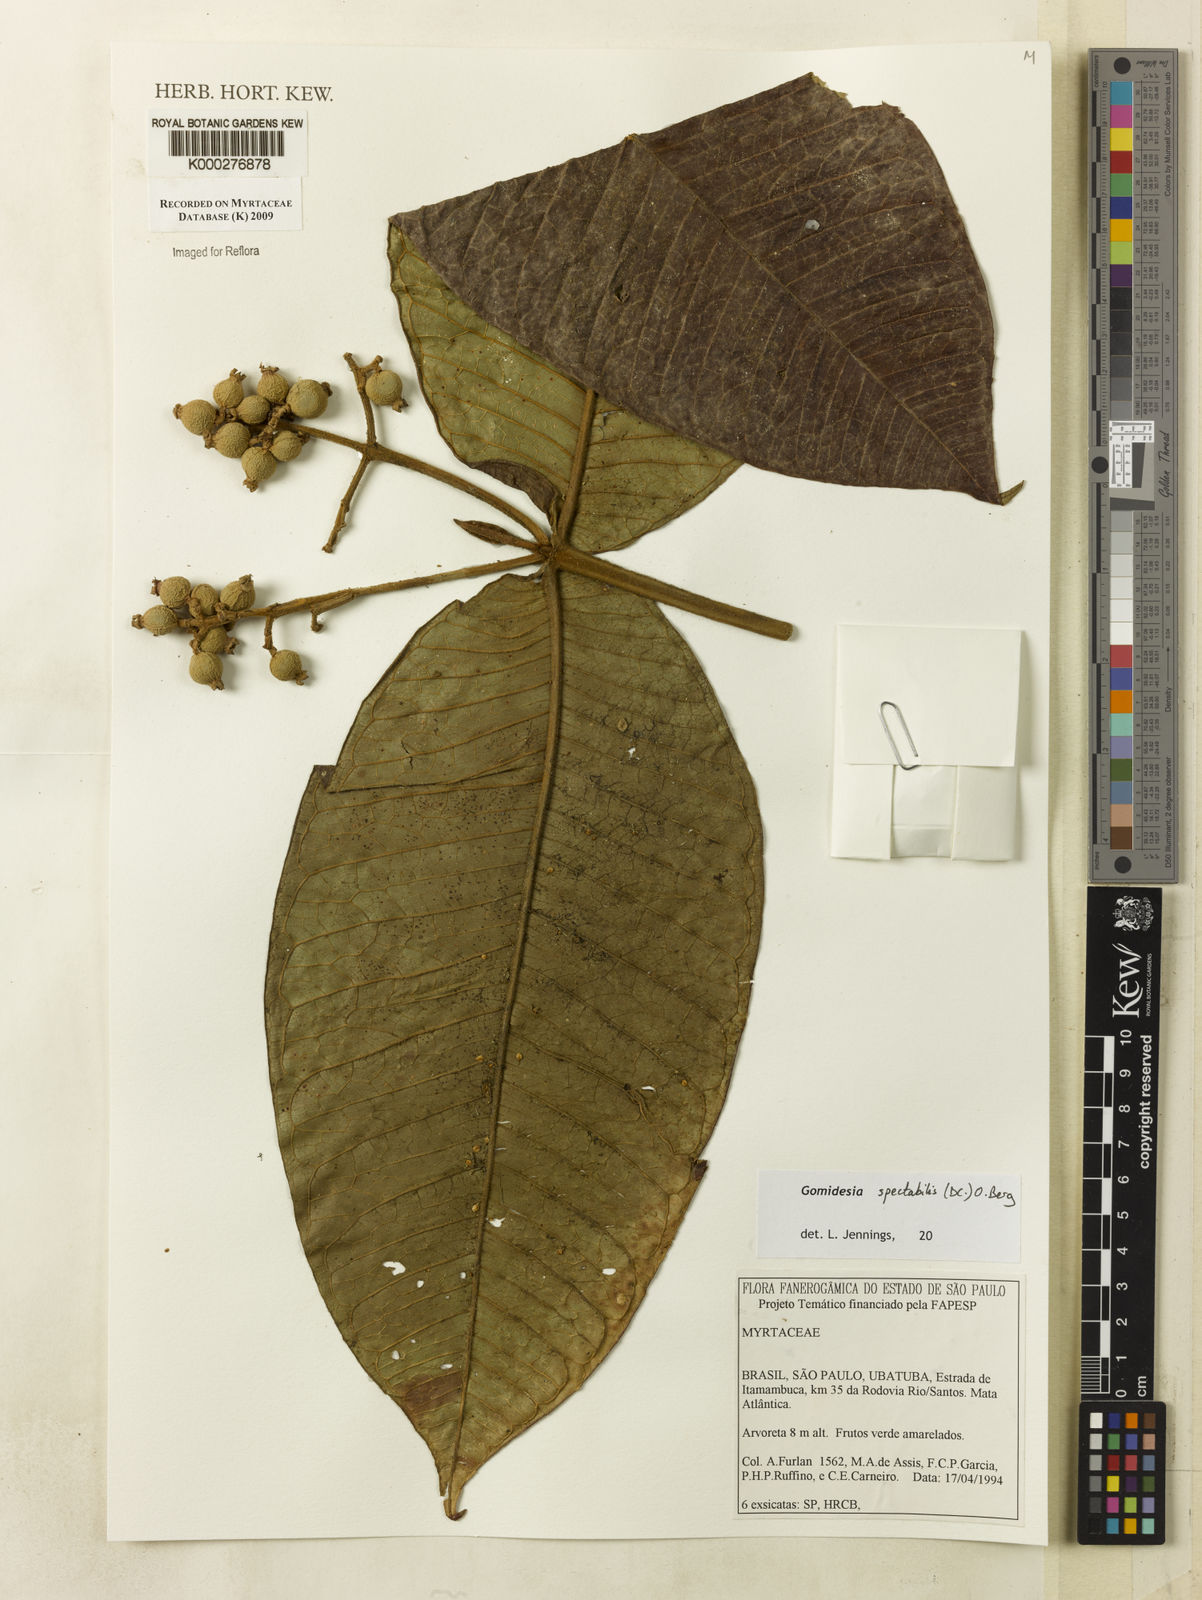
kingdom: Plantae
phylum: Tracheophyta
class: Magnoliopsida
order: Myrtales
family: Myrtaceae
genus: Myrcia
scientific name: Myrcia spectabilis
